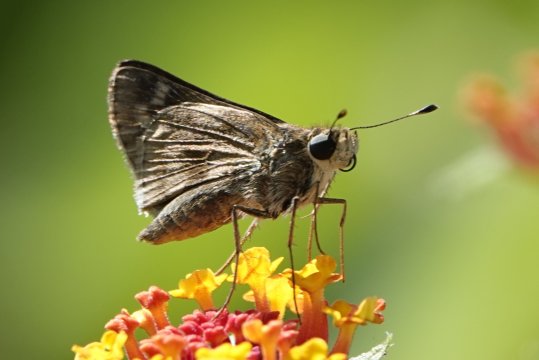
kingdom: Animalia
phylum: Arthropoda
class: Insecta
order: Lepidoptera
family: Hesperiidae
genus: Pompeius
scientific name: Pompeius pompeius
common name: Pompeius Skipper
